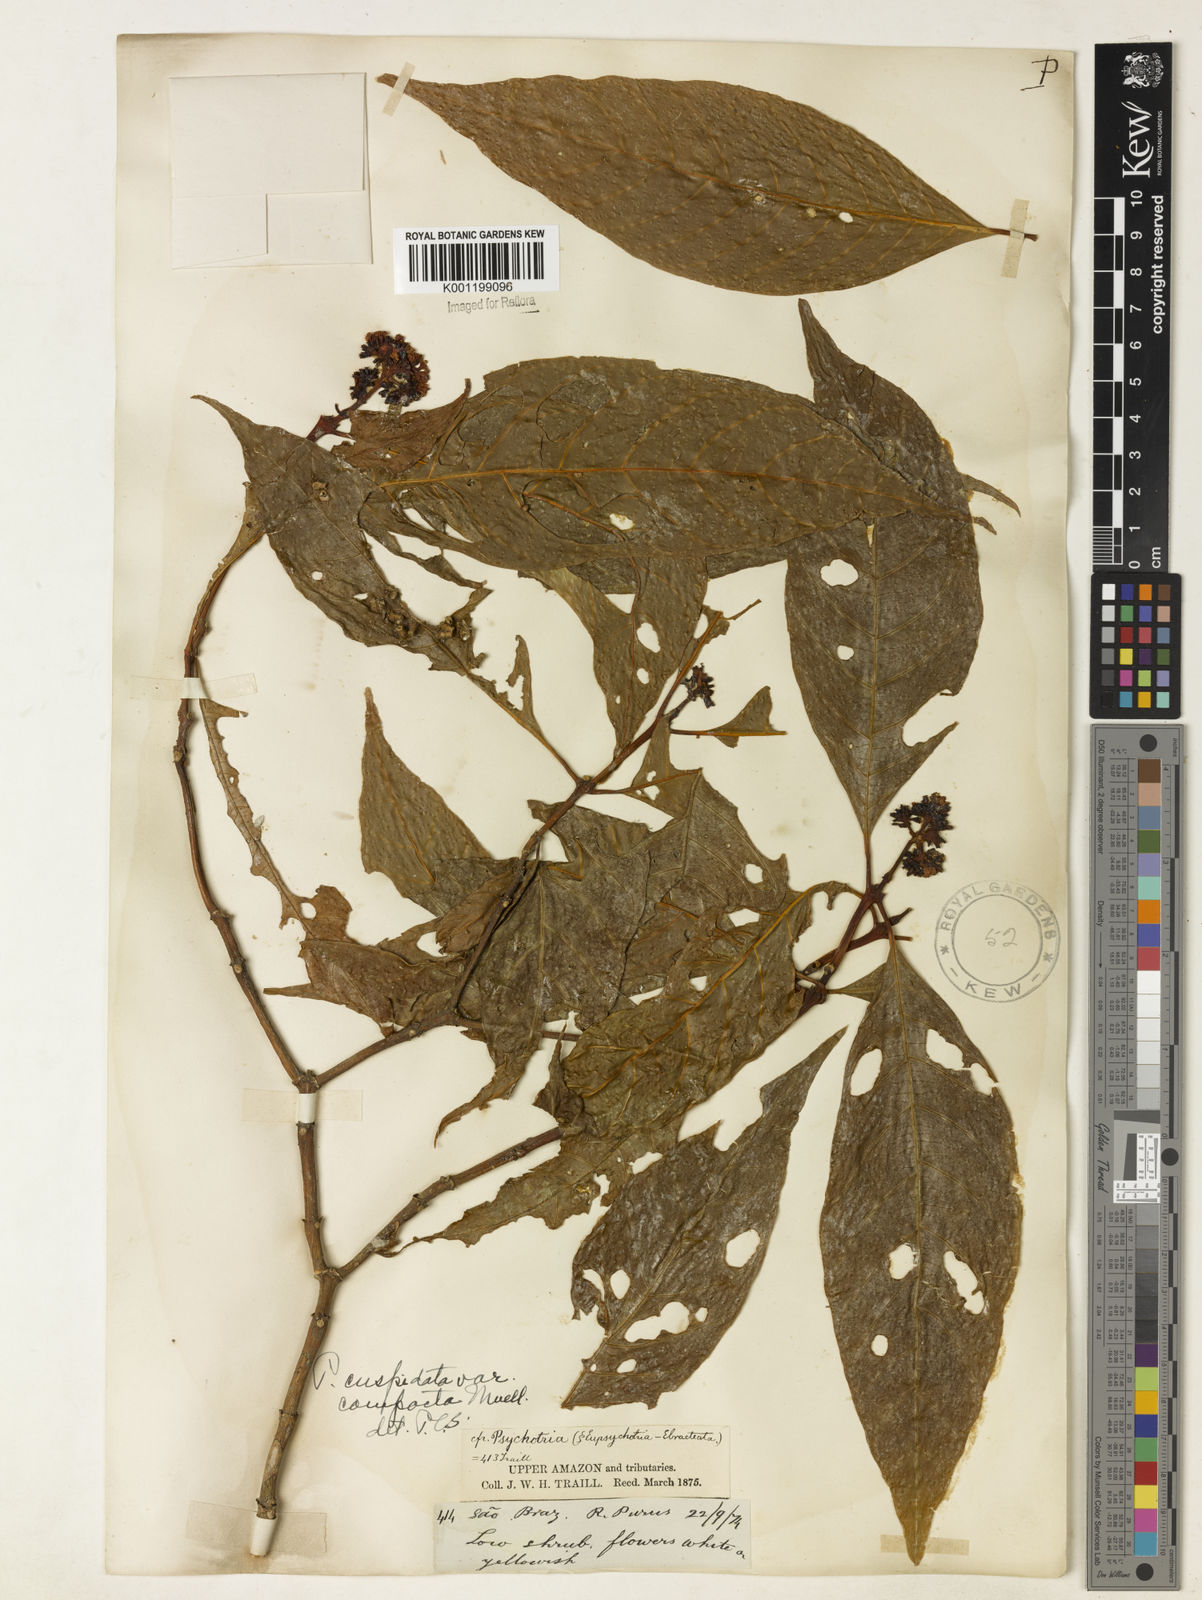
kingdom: Plantae
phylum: Tracheophyta
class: Magnoliopsida
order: Gentianales
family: Rubiaceae
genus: Palicourea
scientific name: Palicourea cuspidata
